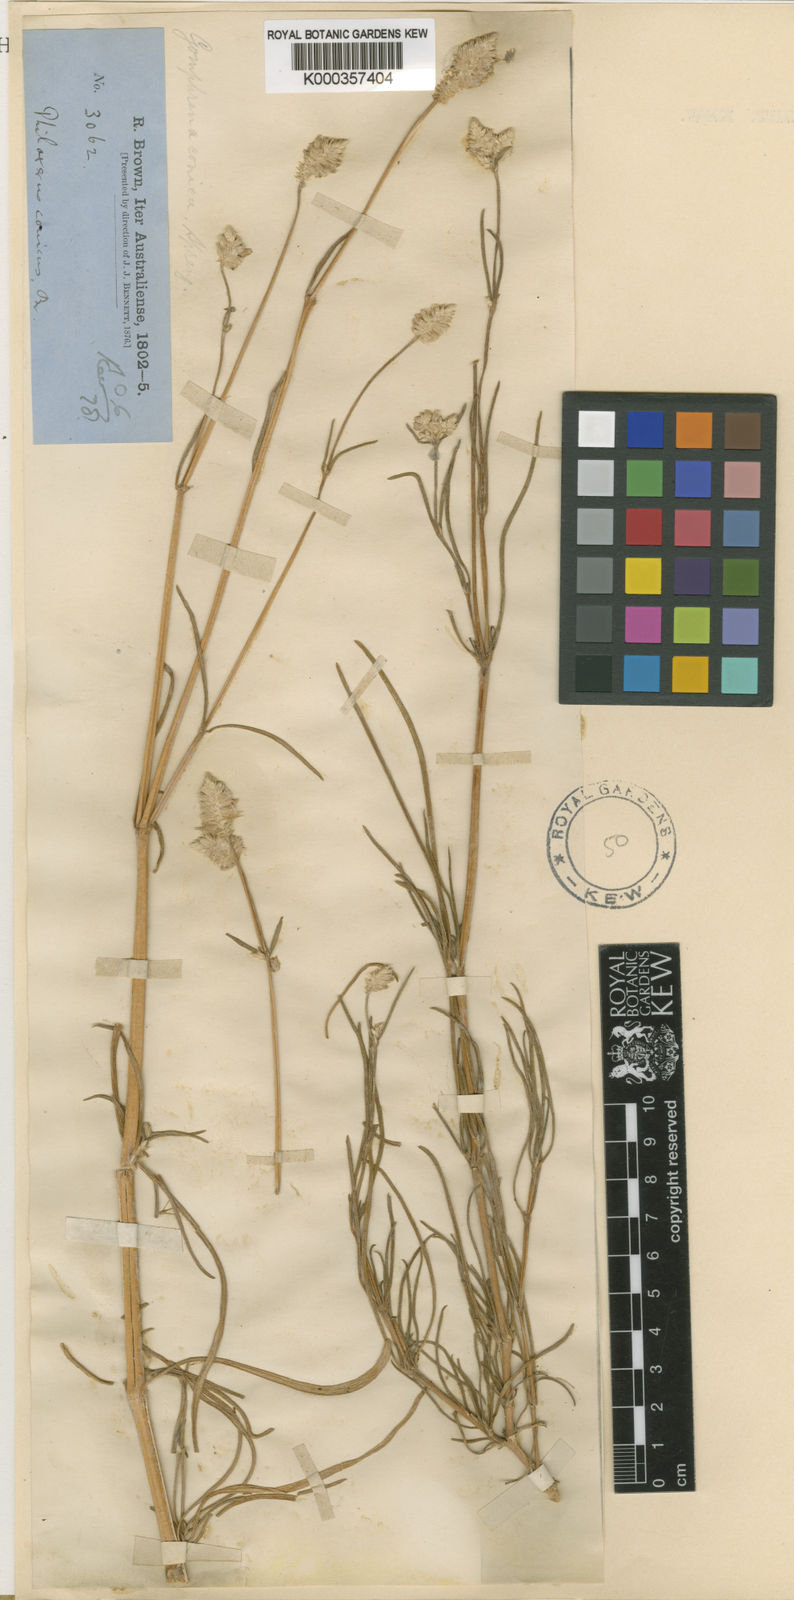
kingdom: Plantae
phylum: Tracheophyta
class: Magnoliopsida
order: Caryophyllales
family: Amaranthaceae
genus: Gomphrena
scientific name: Gomphrena conica
